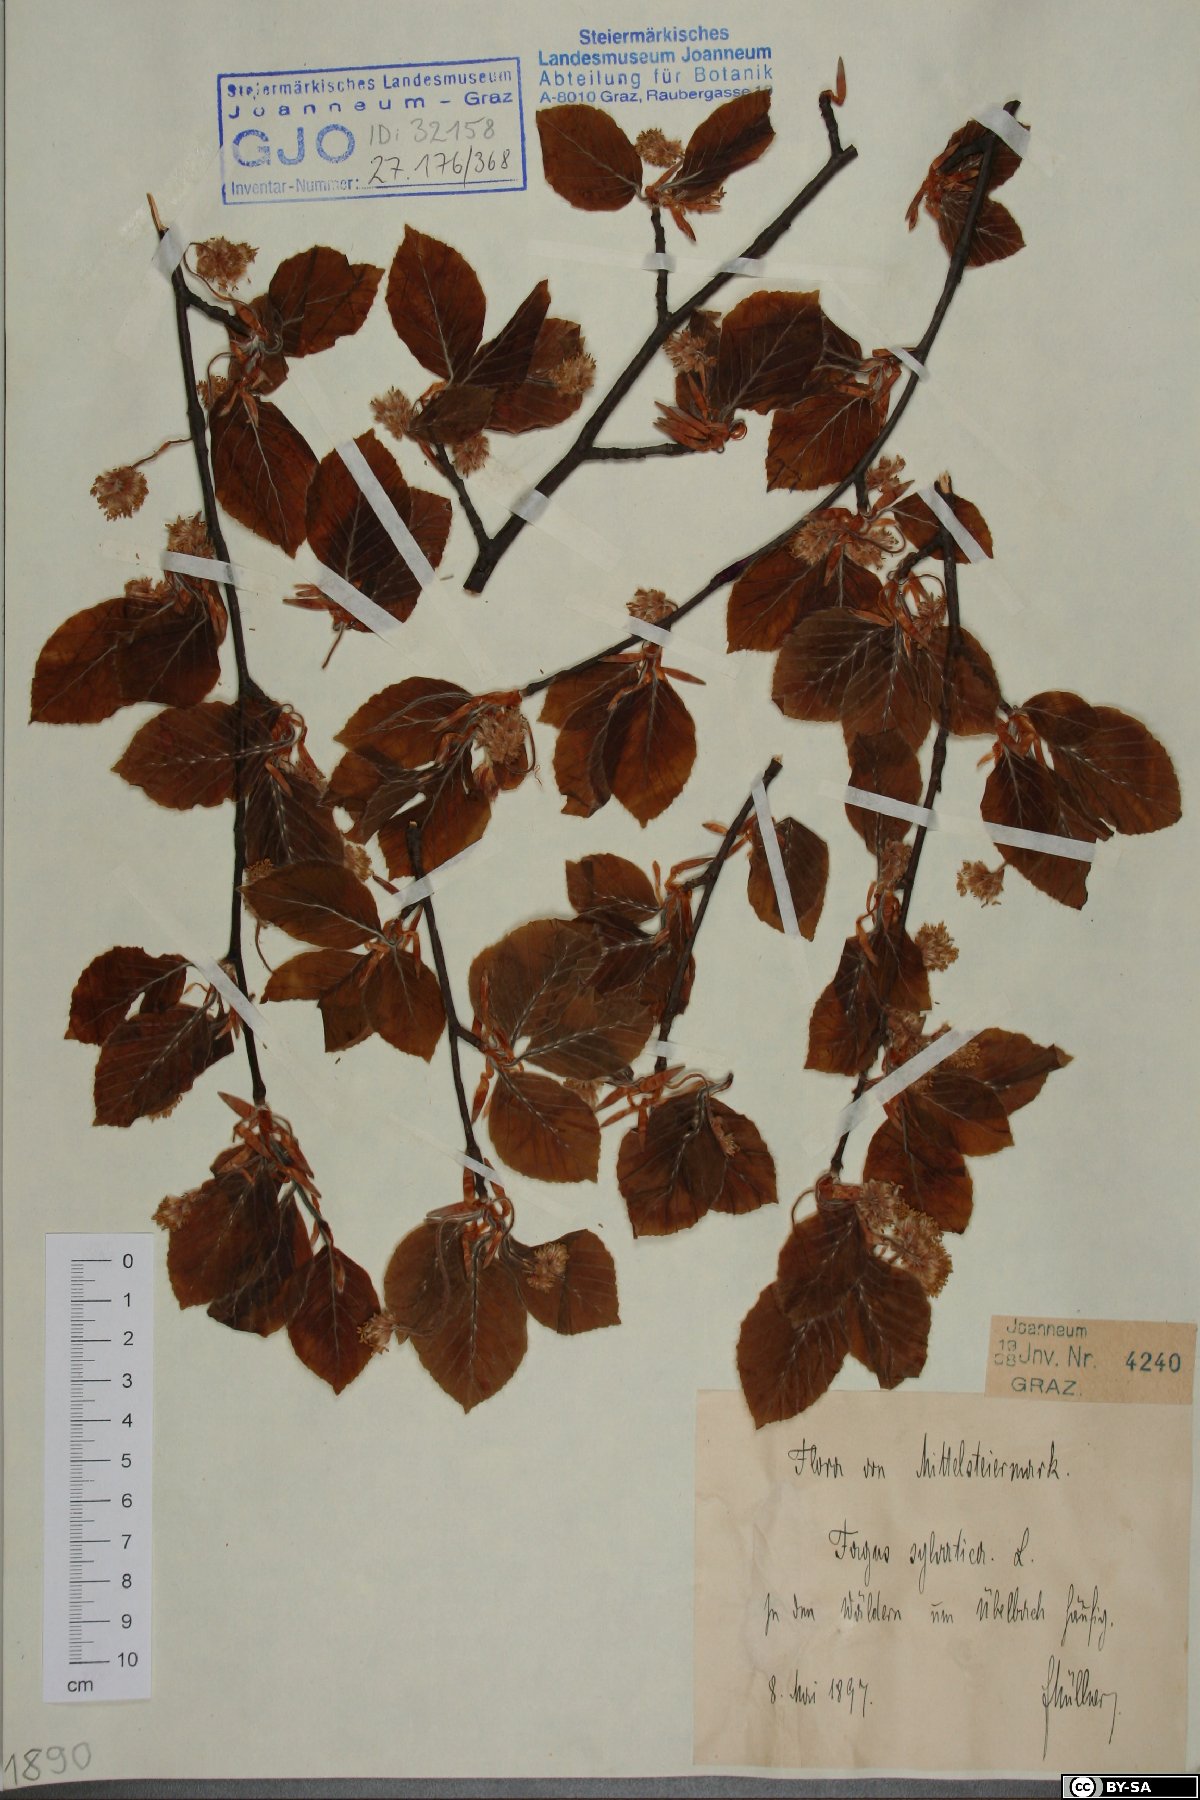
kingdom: Plantae
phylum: Tracheophyta
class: Magnoliopsida
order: Fagales
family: Fagaceae
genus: Fagus
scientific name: Fagus sylvatica
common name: Beech
